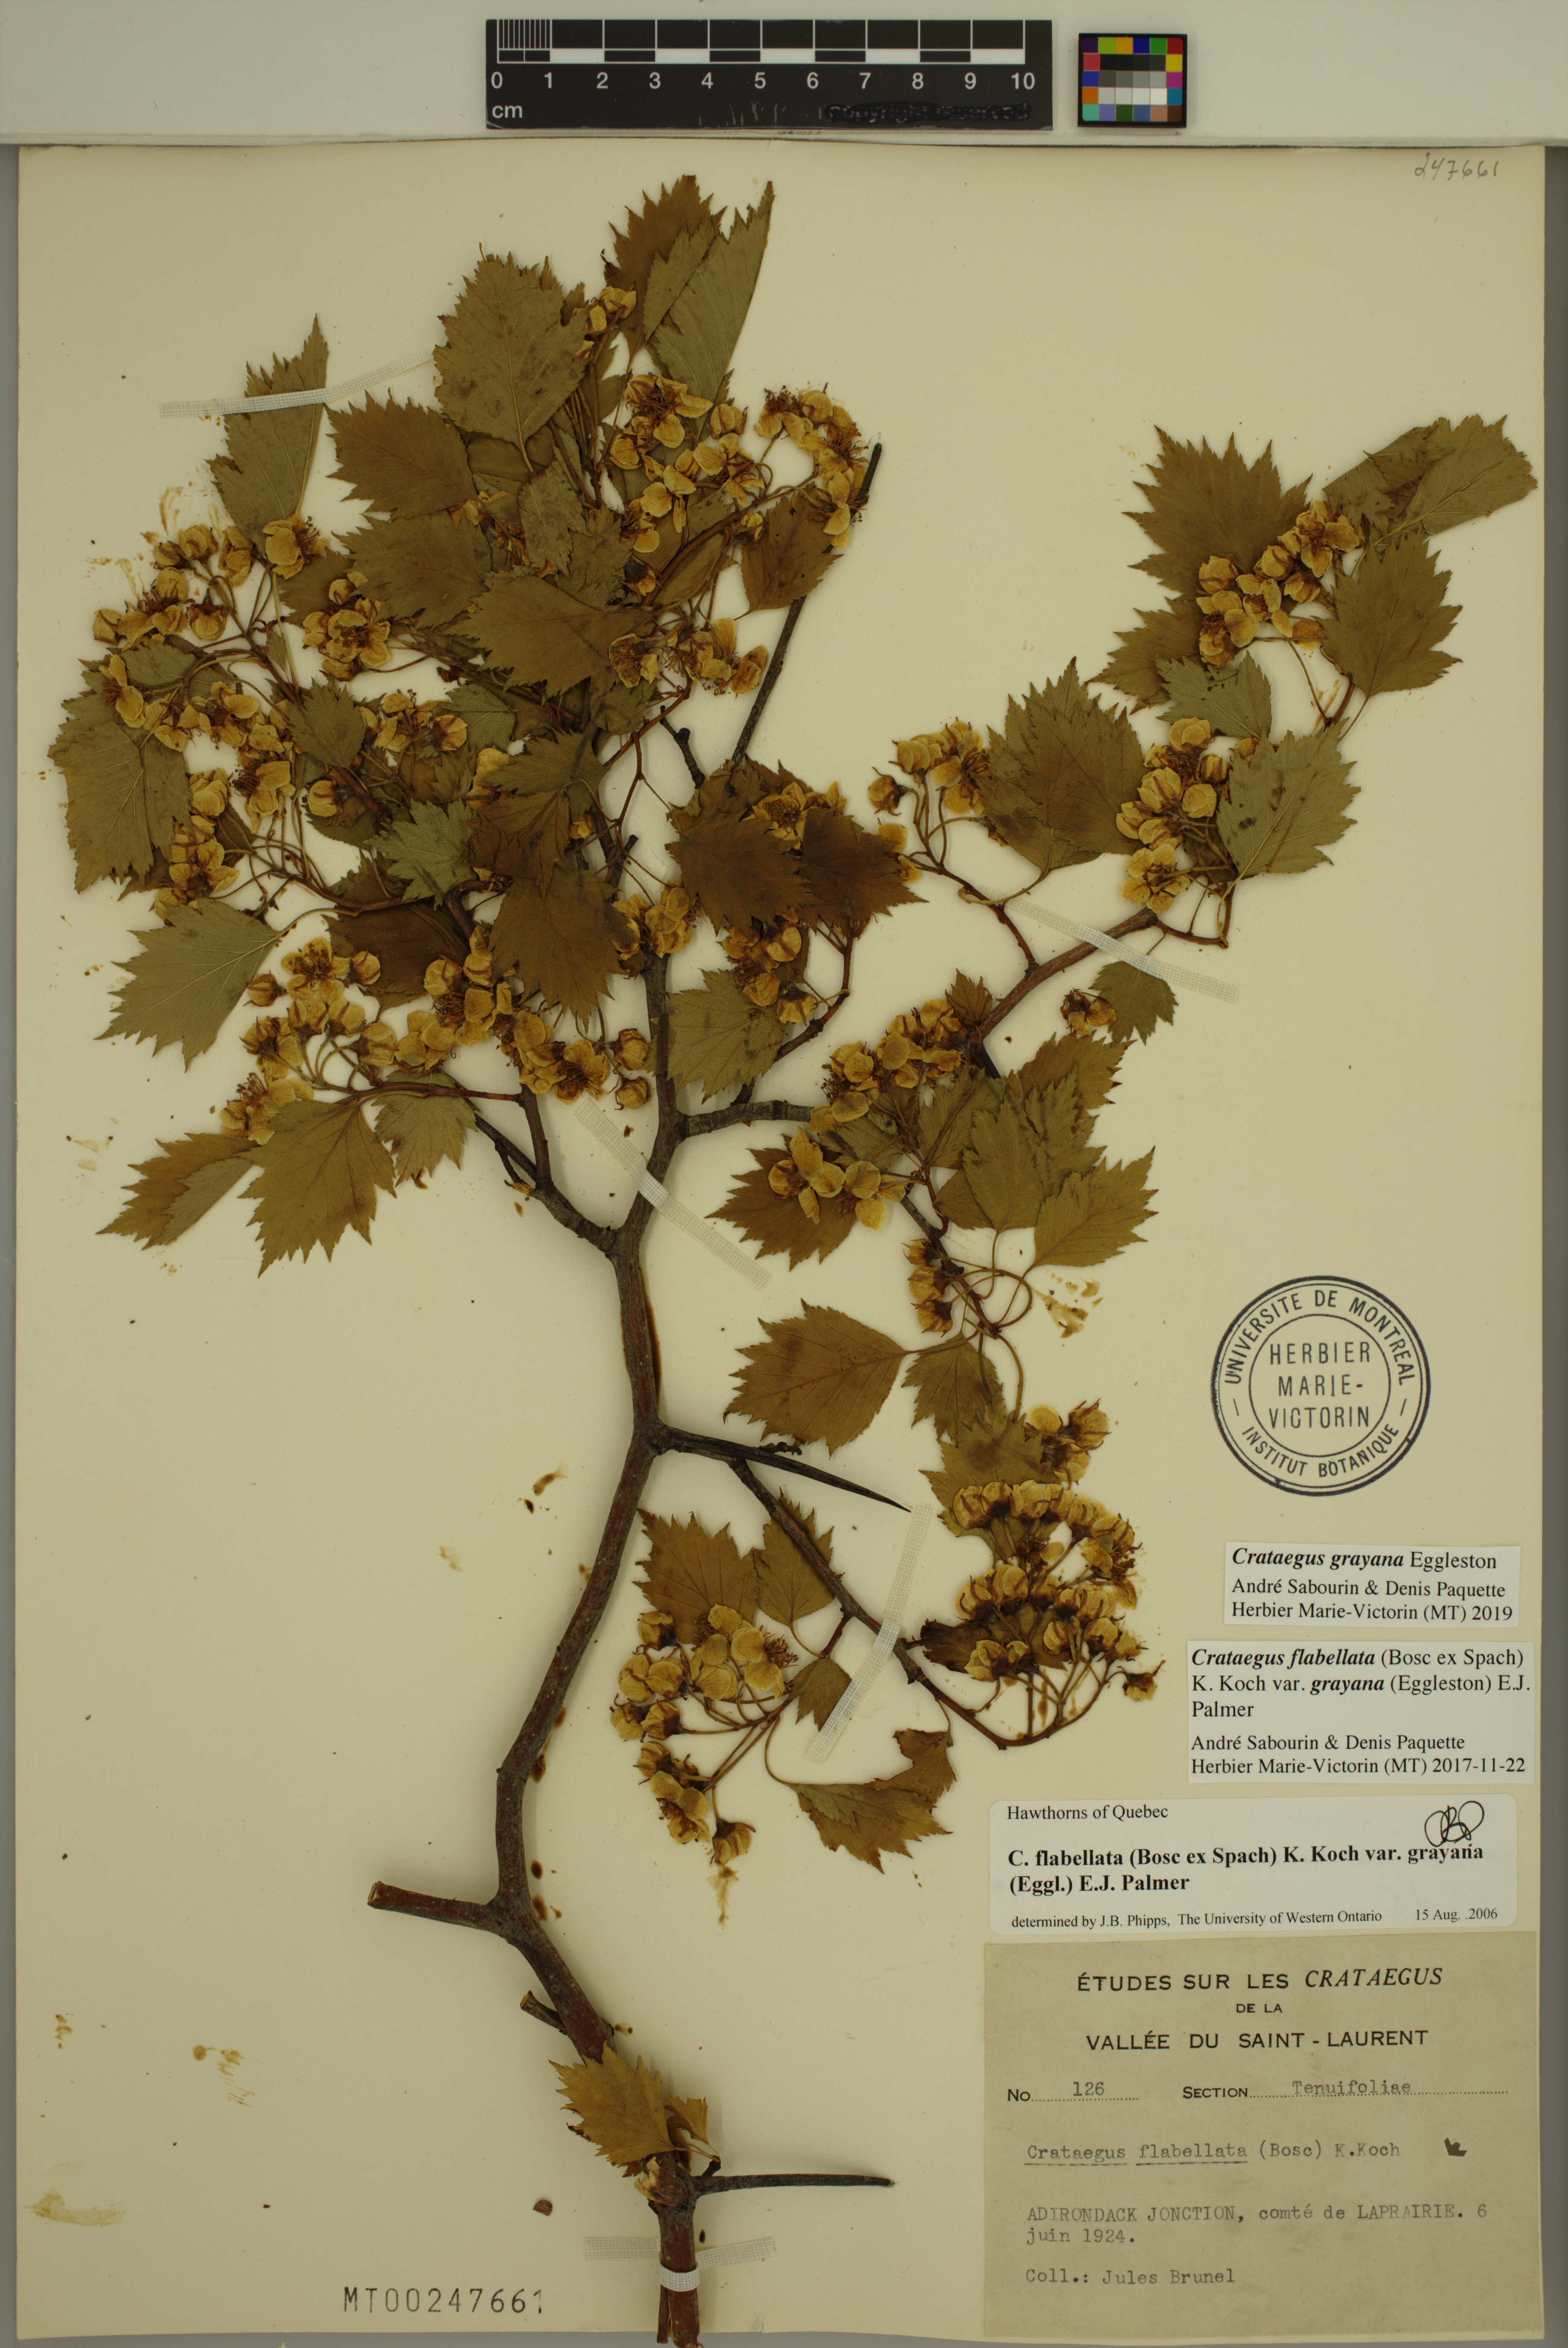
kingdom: Plantae
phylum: Tracheophyta
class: Magnoliopsida
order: Rosales
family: Rosaceae
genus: Crataegus
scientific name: Crataegus schuettei
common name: Schuette's hawthorn
